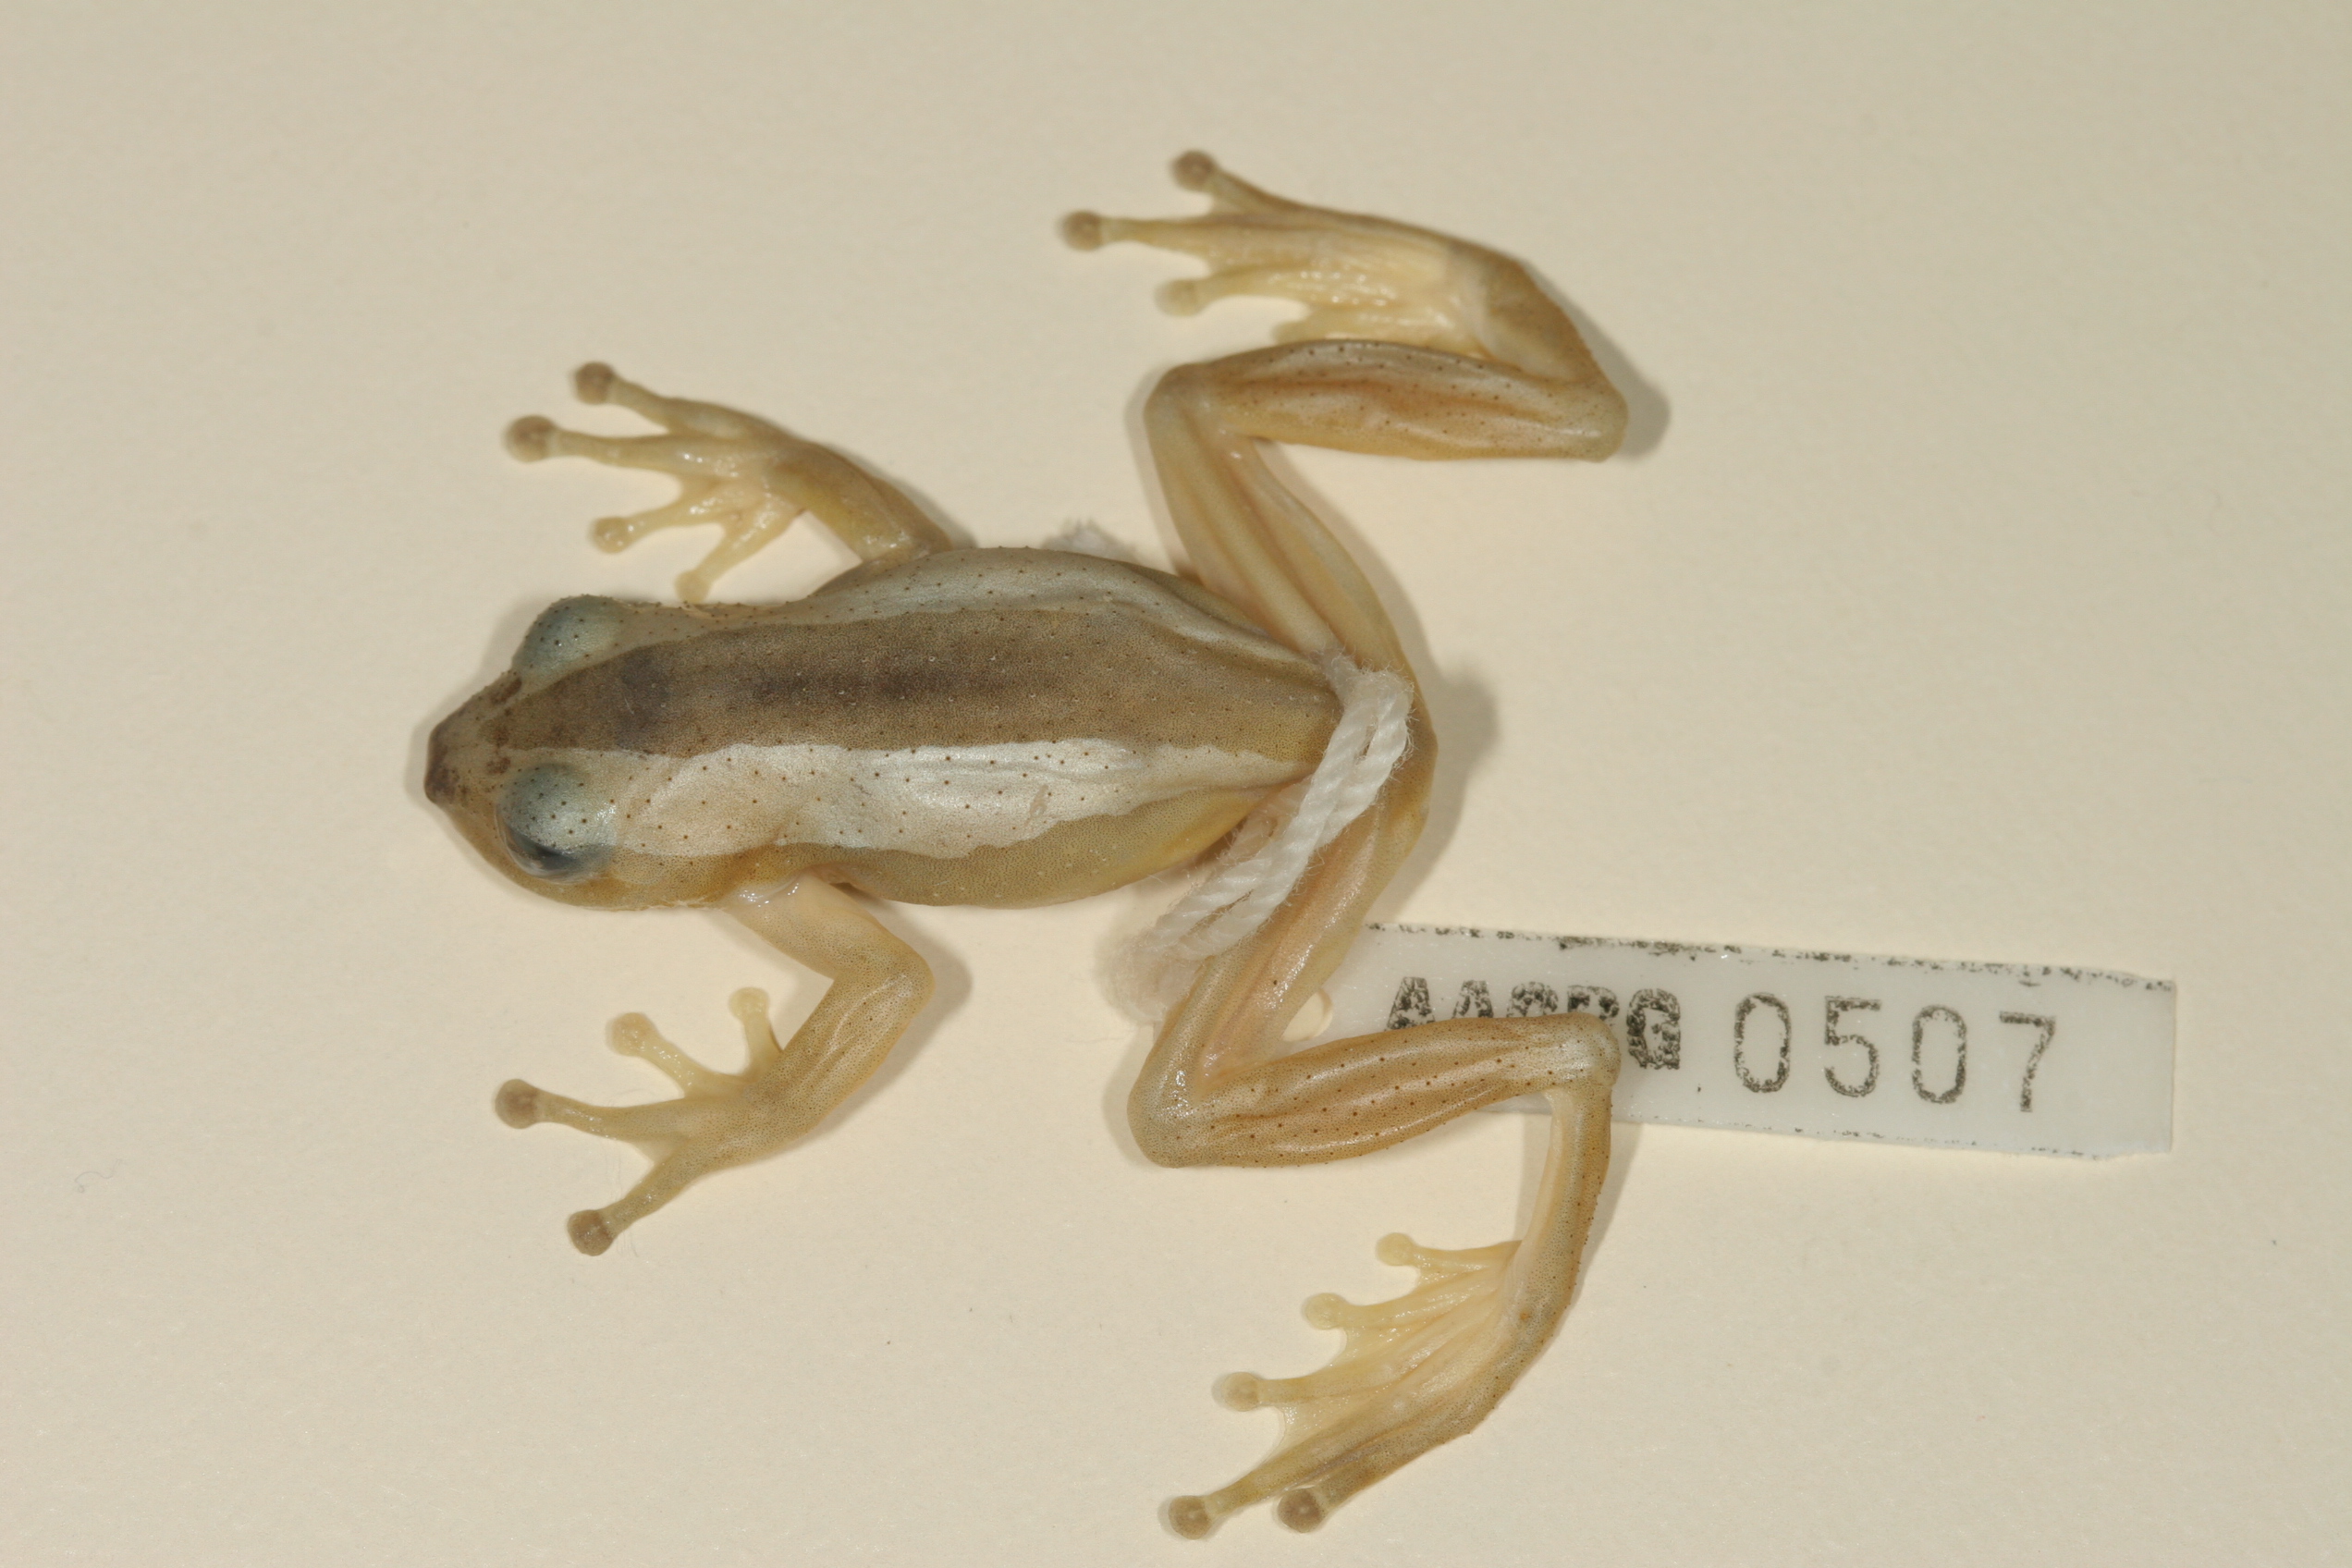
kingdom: Animalia
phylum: Chordata
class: Amphibia
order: Anura
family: Hyperoliidae
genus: Afrixalus
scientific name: Afrixalus fornasini
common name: Fornasini's spiny reed frog
